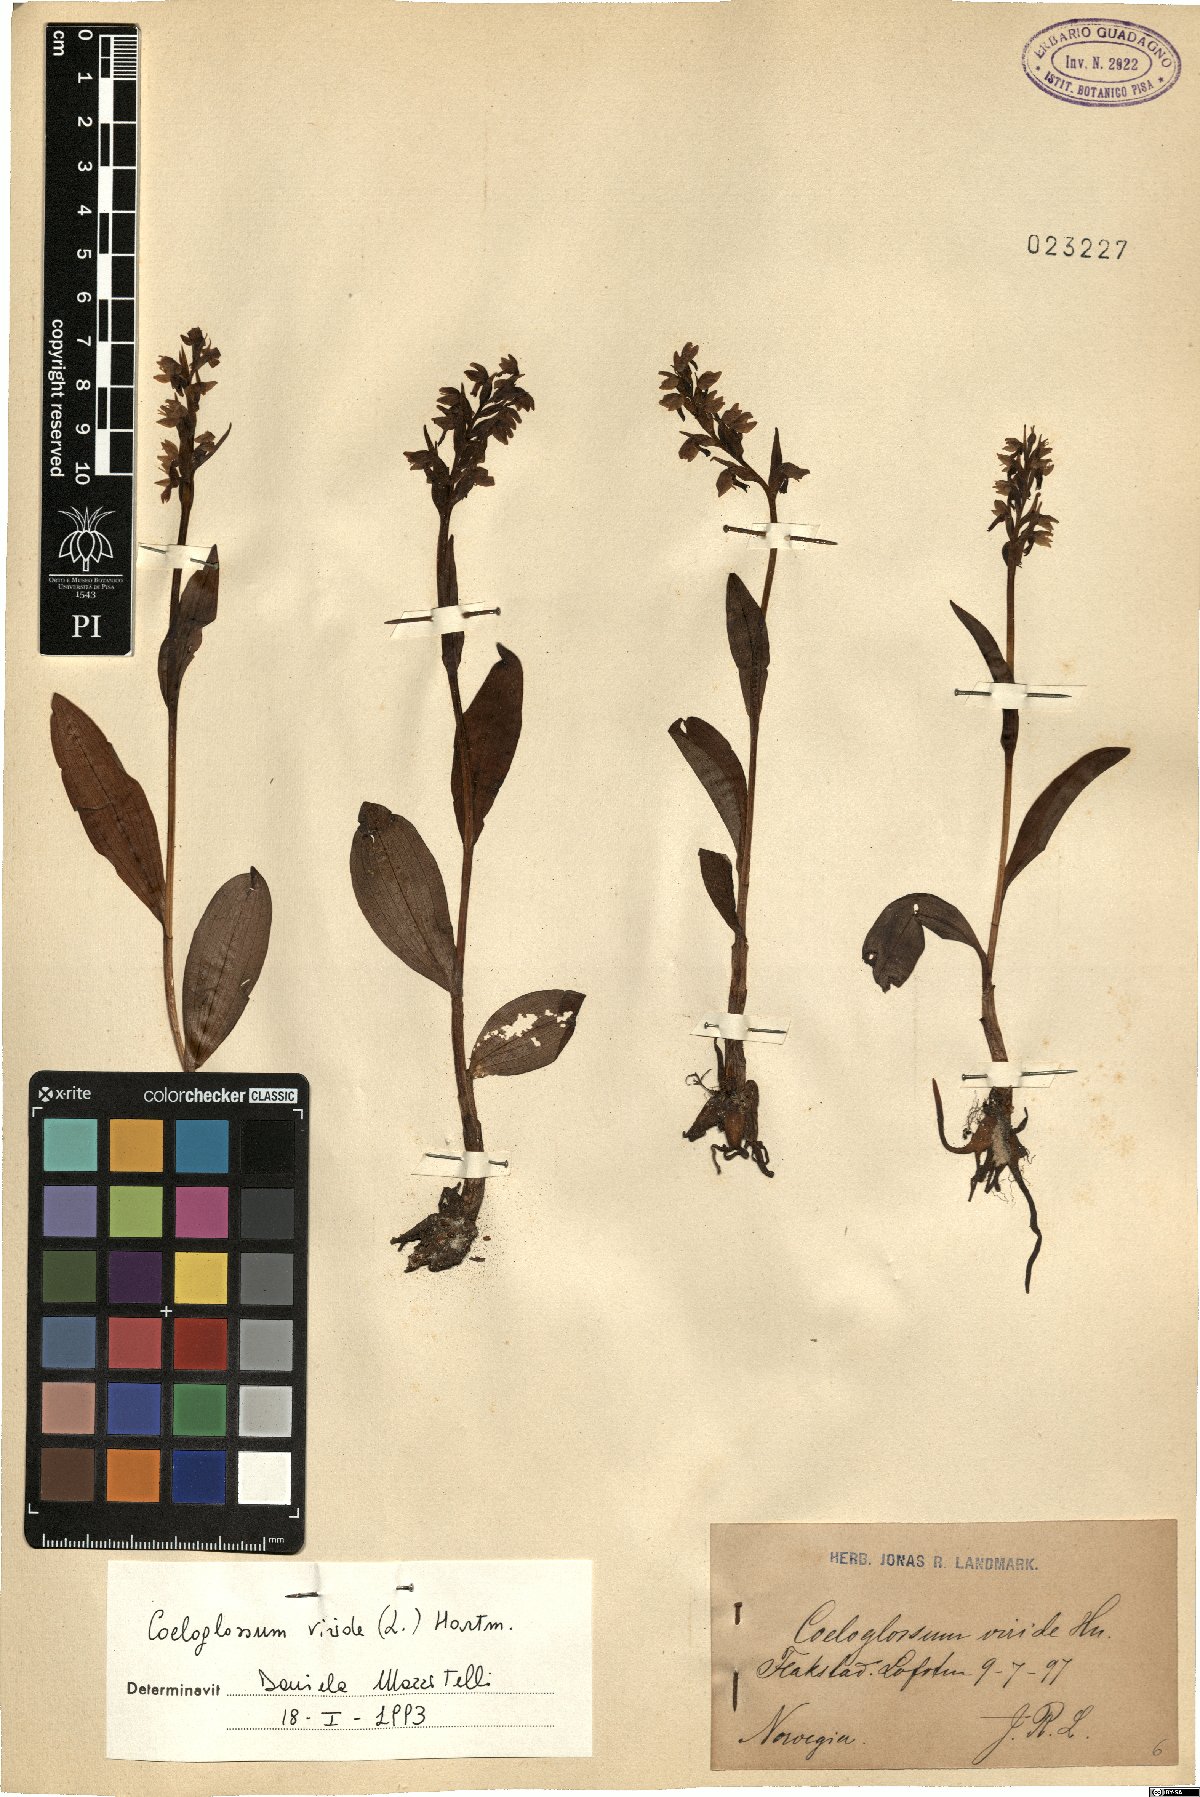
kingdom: Plantae
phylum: Tracheophyta
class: Liliopsida
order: Asparagales
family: Orchidaceae
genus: Dactylorhiza
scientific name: Dactylorhiza viridis
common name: Longbract frog orchid
